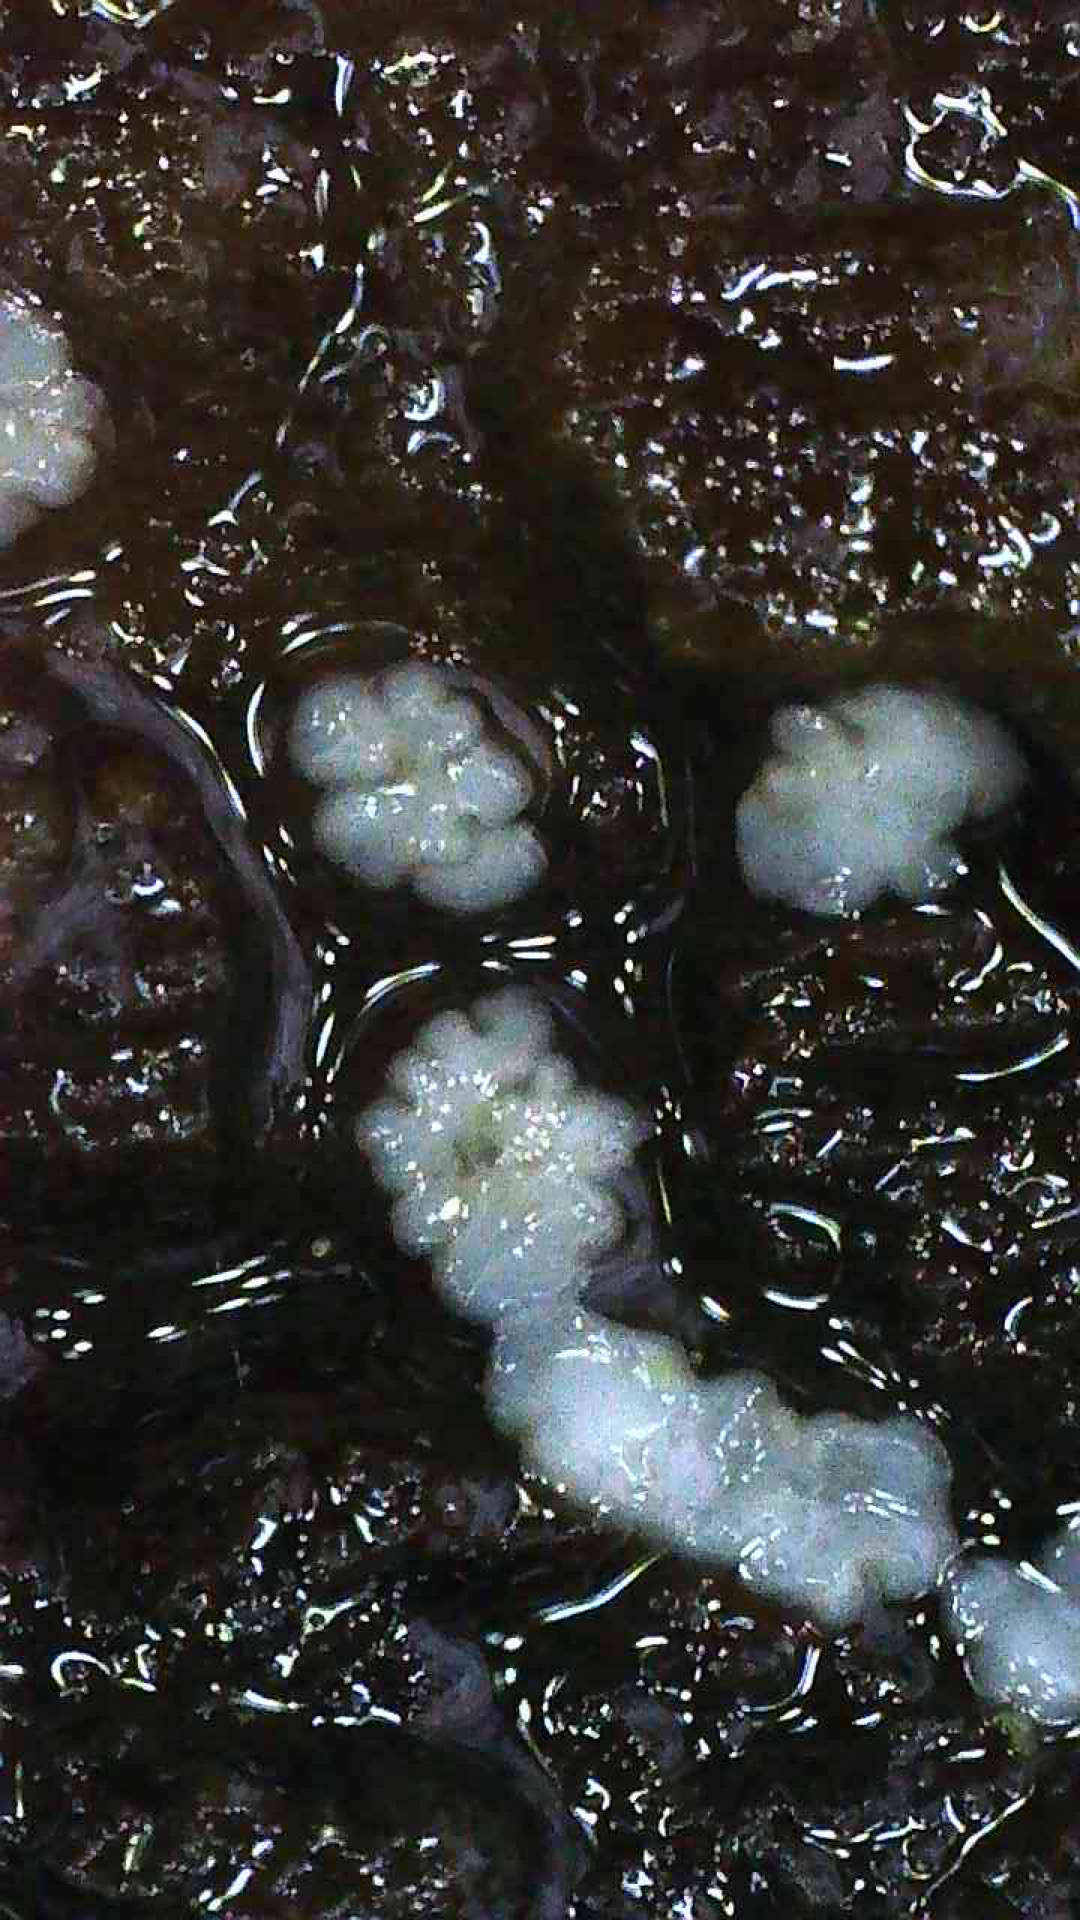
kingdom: Fungi
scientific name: Fungi
